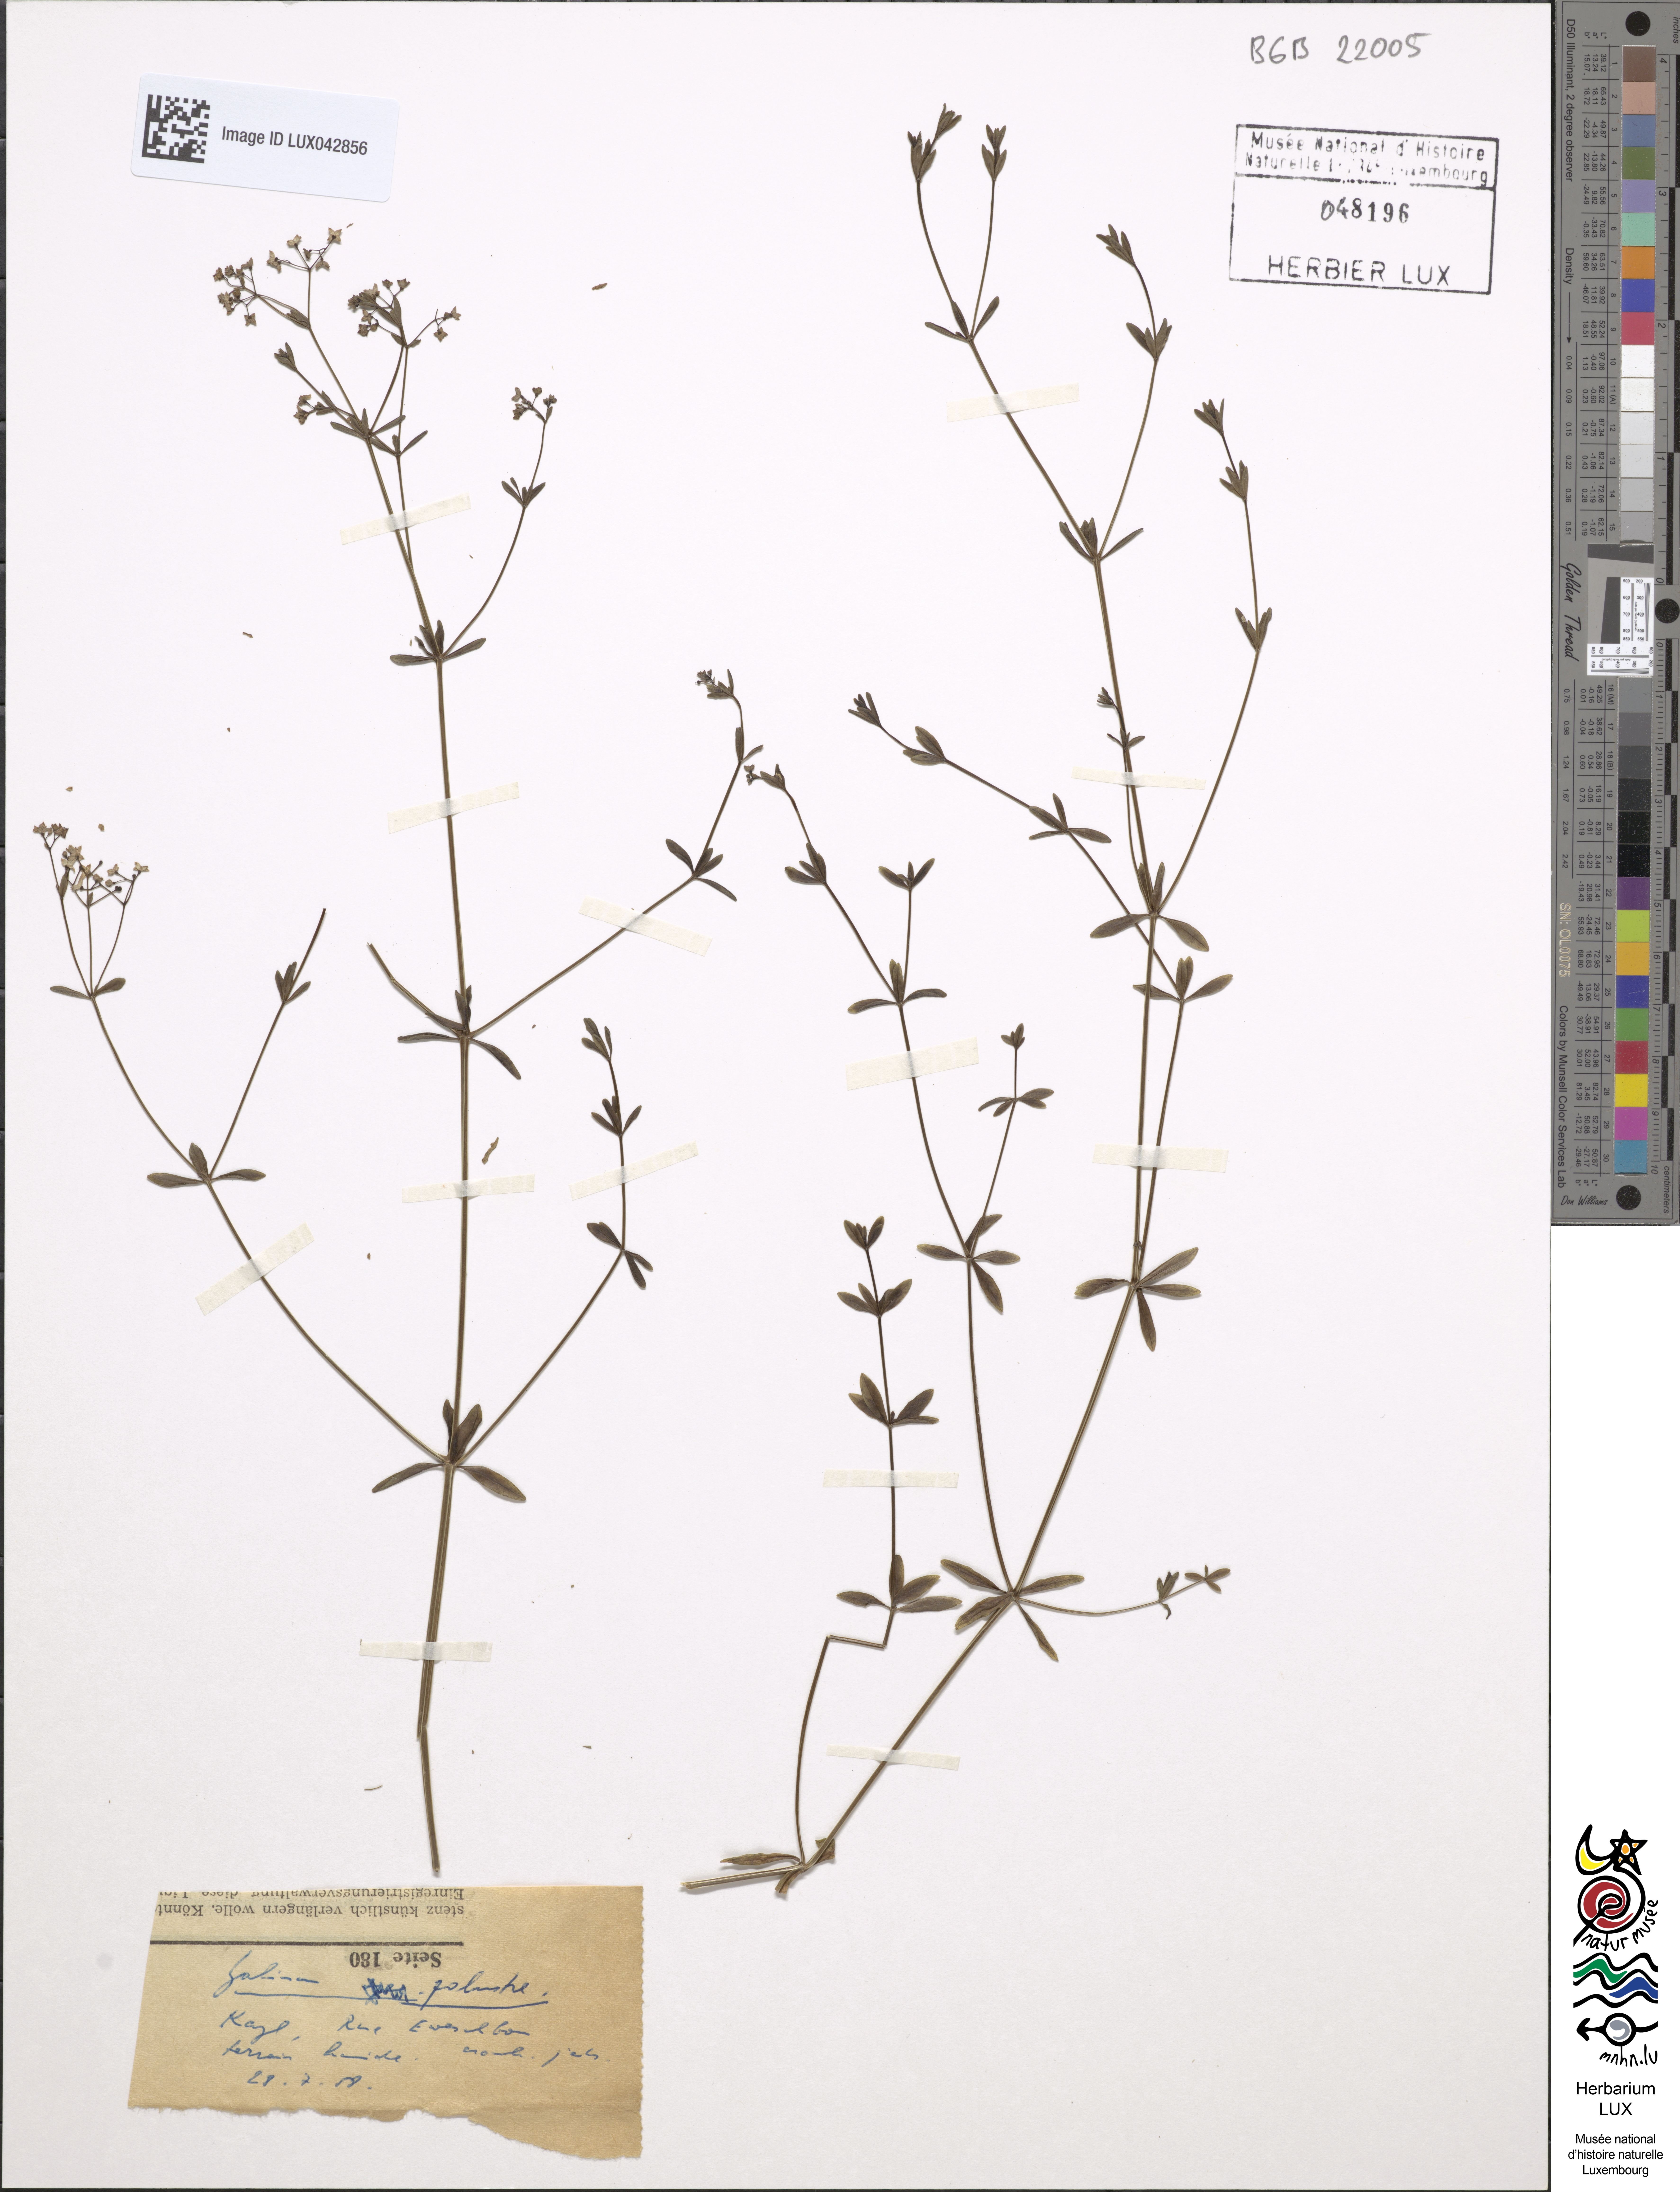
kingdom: Plantae
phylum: Tracheophyta
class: Magnoliopsida
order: Gentianales
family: Rubiaceae
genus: Galium
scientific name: Galium palustre
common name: Common marsh-bedstraw
